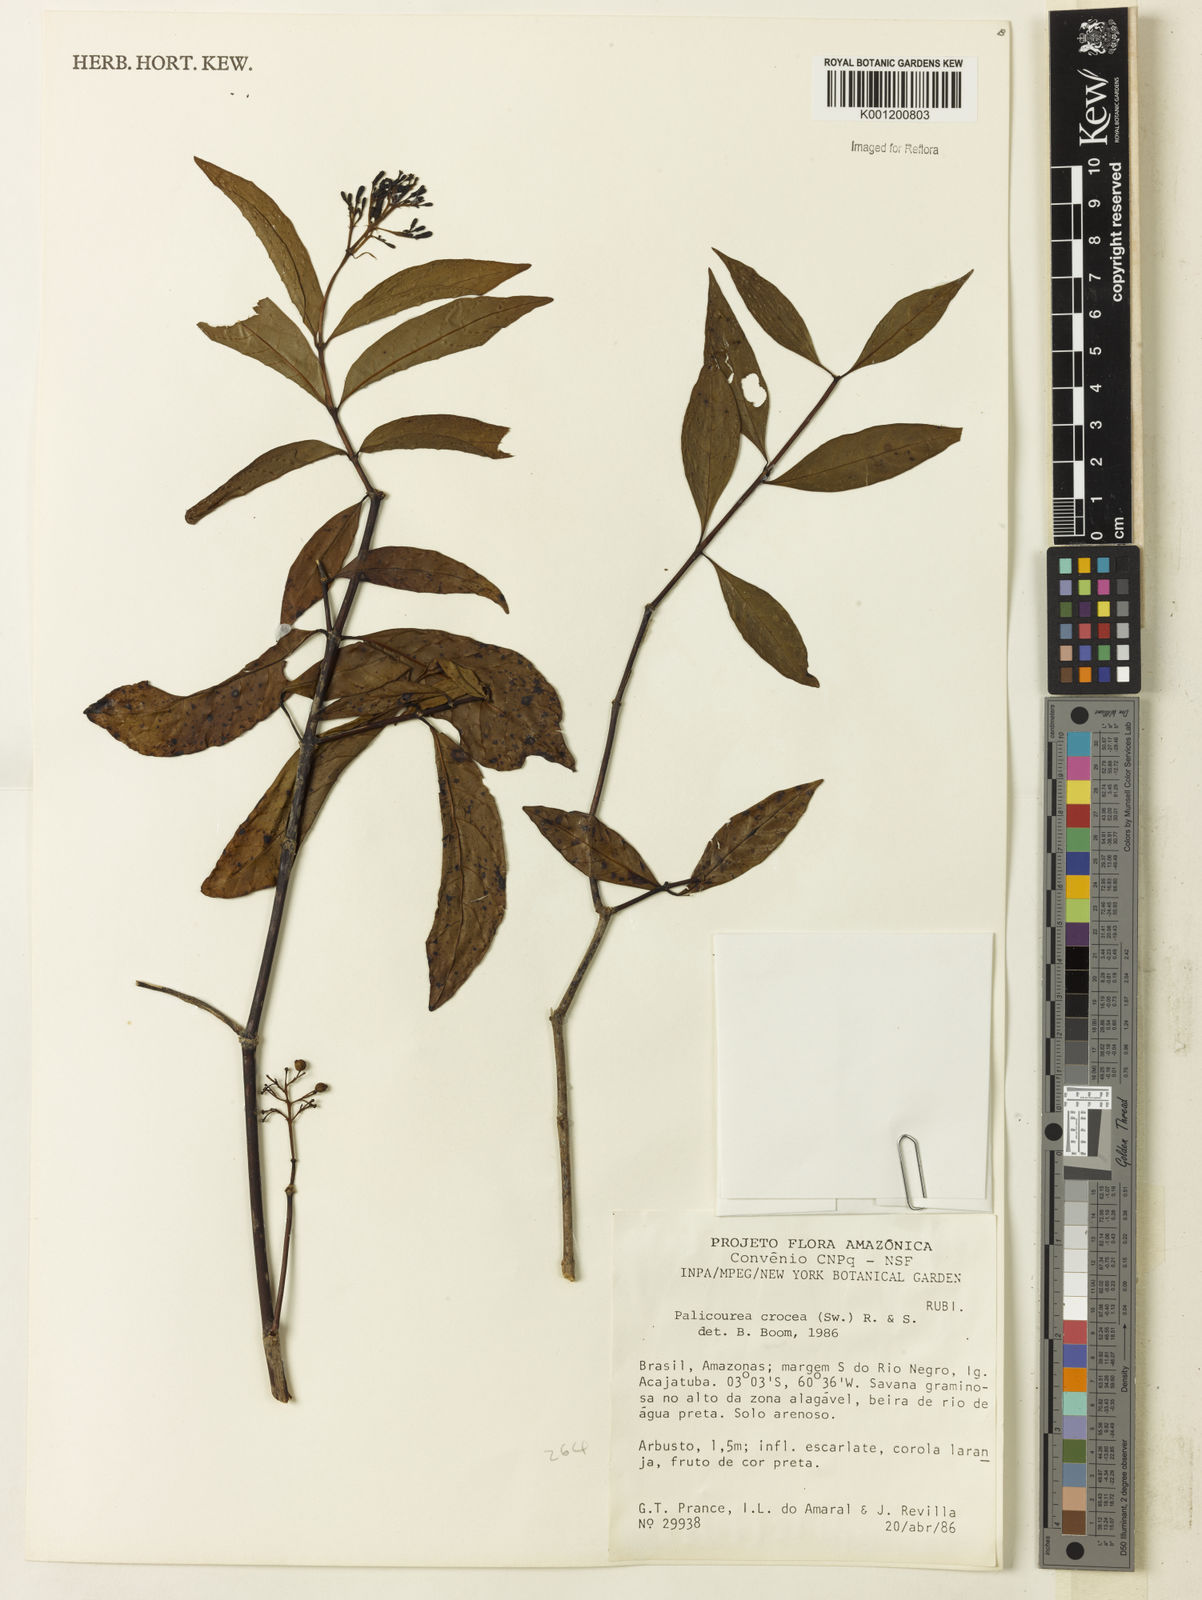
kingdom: Plantae
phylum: Tracheophyta
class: Magnoliopsida
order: Gentianales
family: Rubiaceae
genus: Palicourea
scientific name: Palicourea crocea
